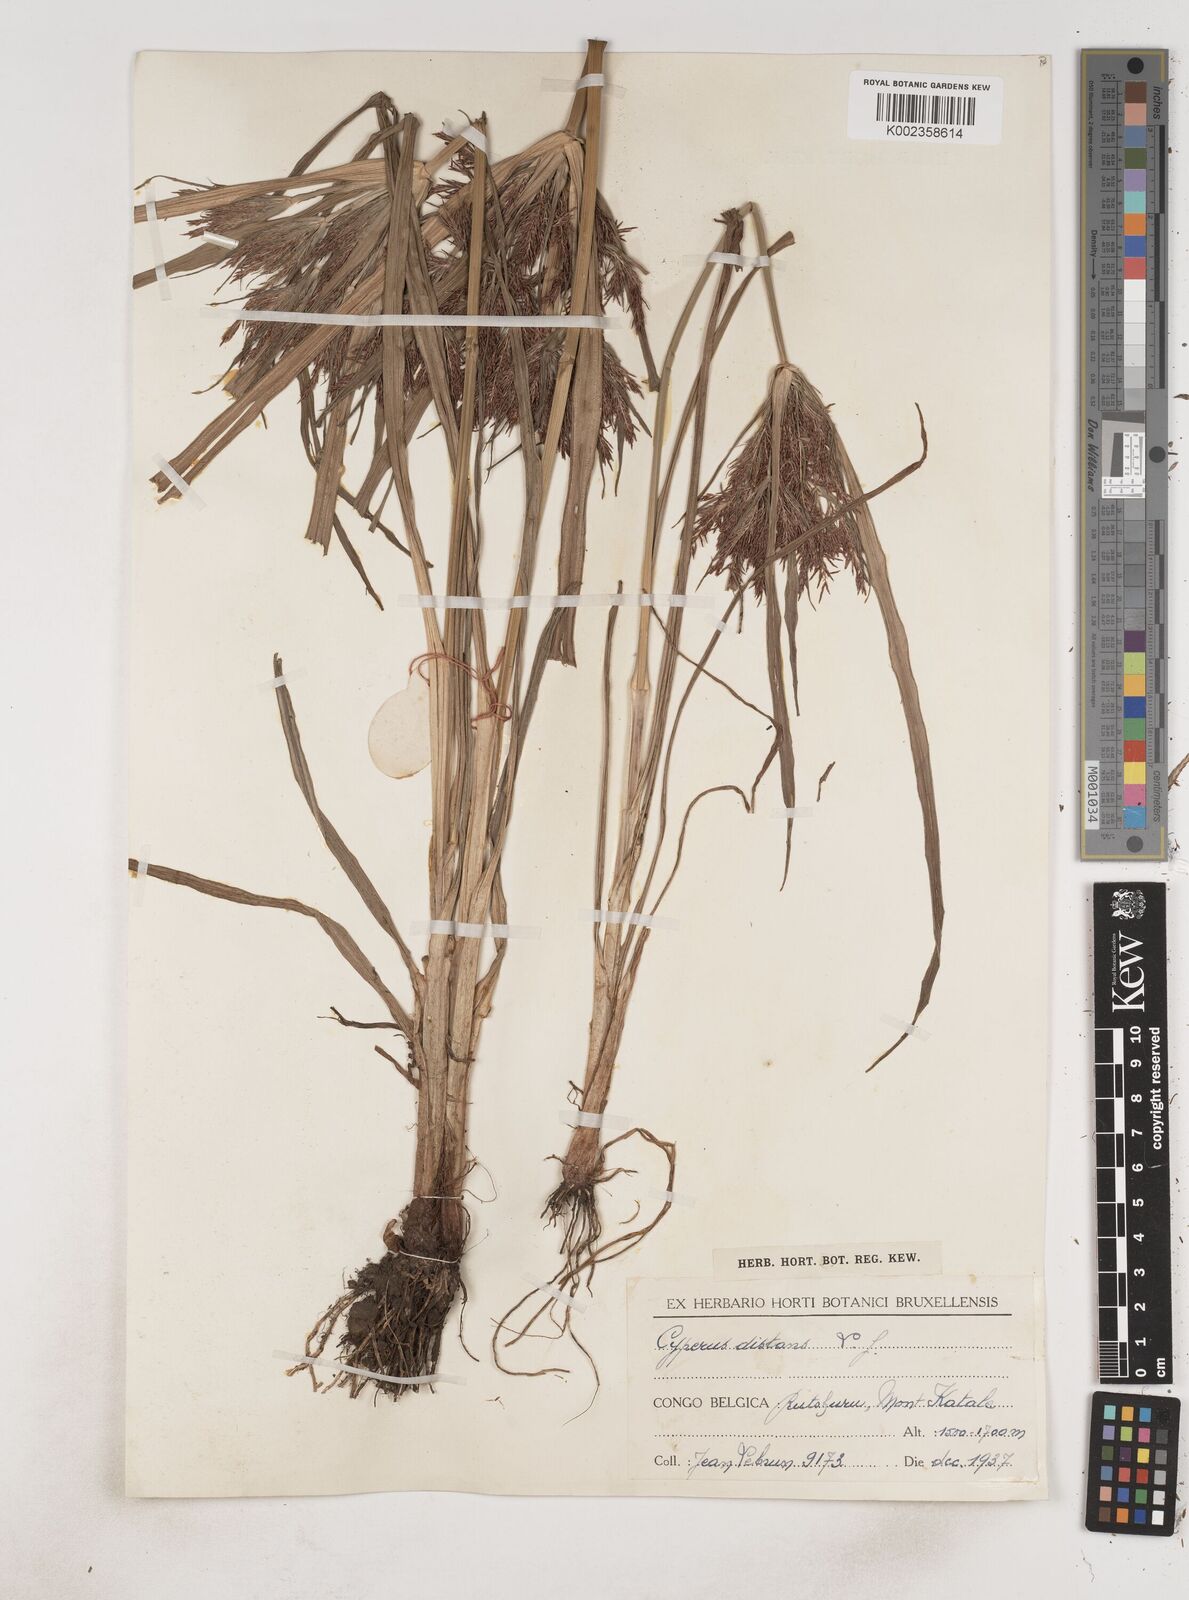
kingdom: Plantae
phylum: Tracheophyta
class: Liliopsida
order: Poales
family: Cyperaceae
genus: Cyperus
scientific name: Cyperus distans
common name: Slender cyperus
